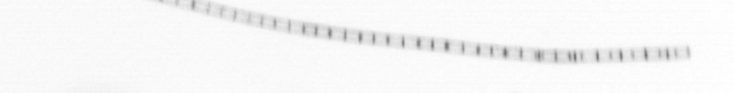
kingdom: Chromista
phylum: Ochrophyta
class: Bacillariophyceae
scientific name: Bacillariophyceae
